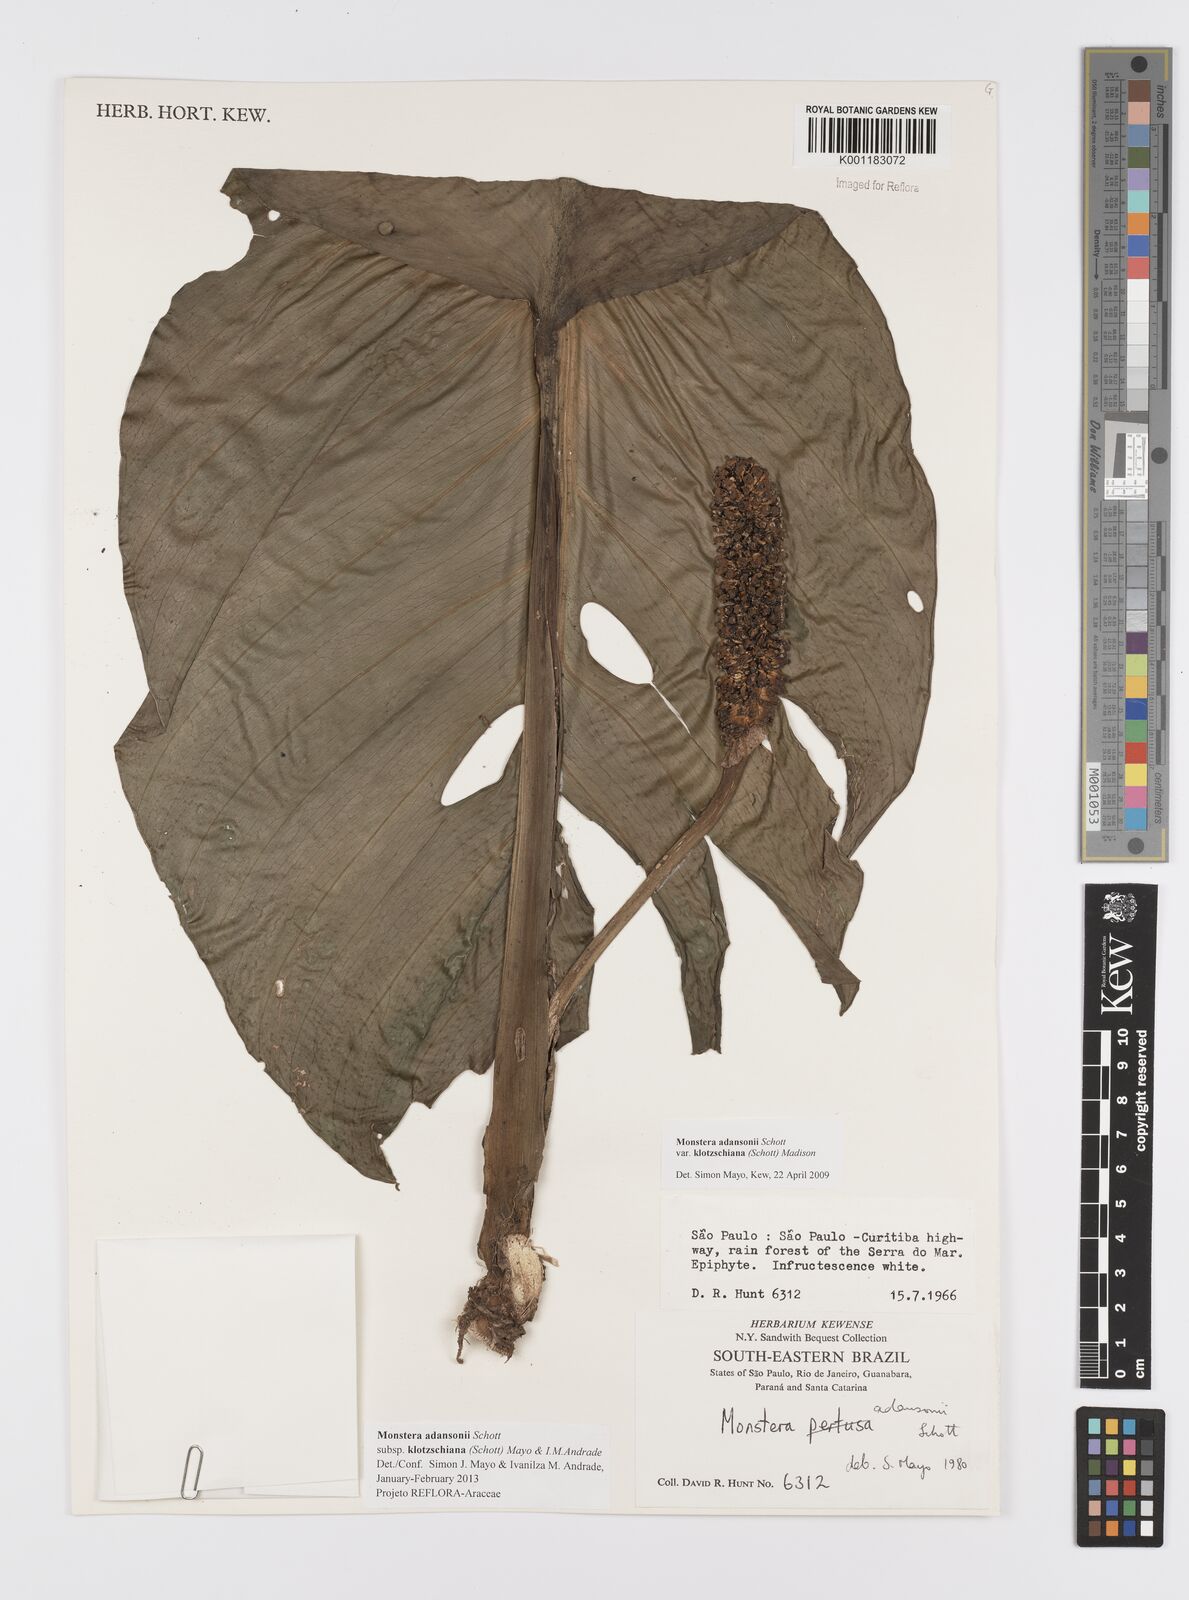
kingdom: Plantae
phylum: Tracheophyta
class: Liliopsida
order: Alismatales
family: Araceae
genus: Monstera
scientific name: Monstera adansonii
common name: Tarovine
